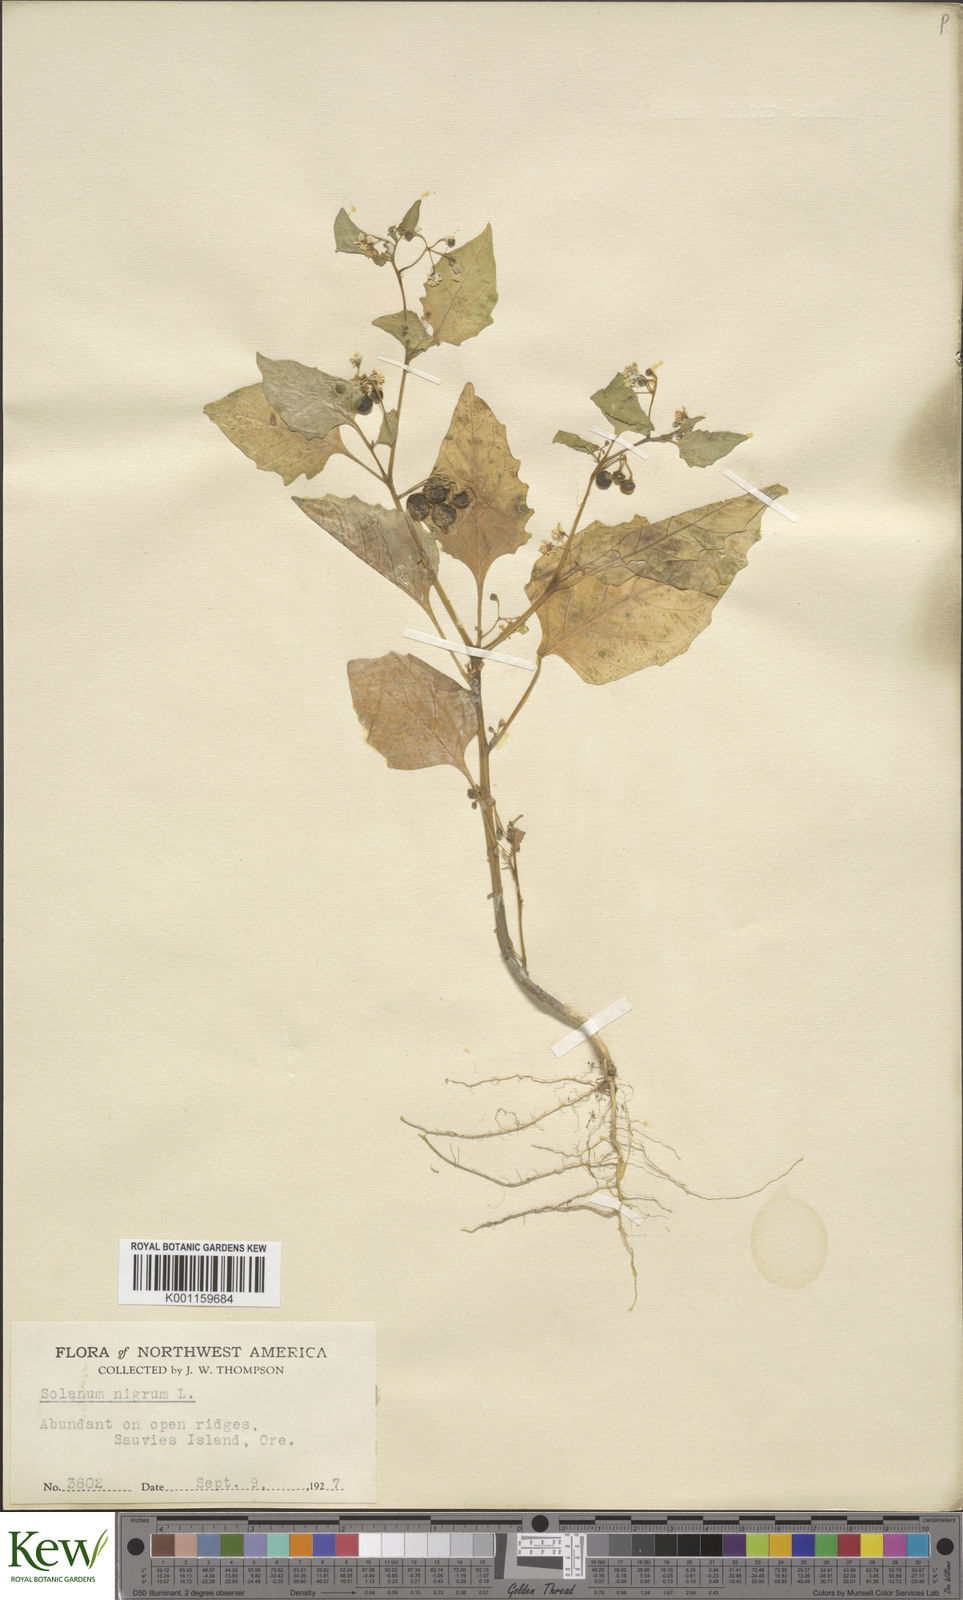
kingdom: Plantae
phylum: Tracheophyta
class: Magnoliopsida
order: Solanales
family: Solanaceae
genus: Solanum
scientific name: Solanum americanum
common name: American black nightshade
